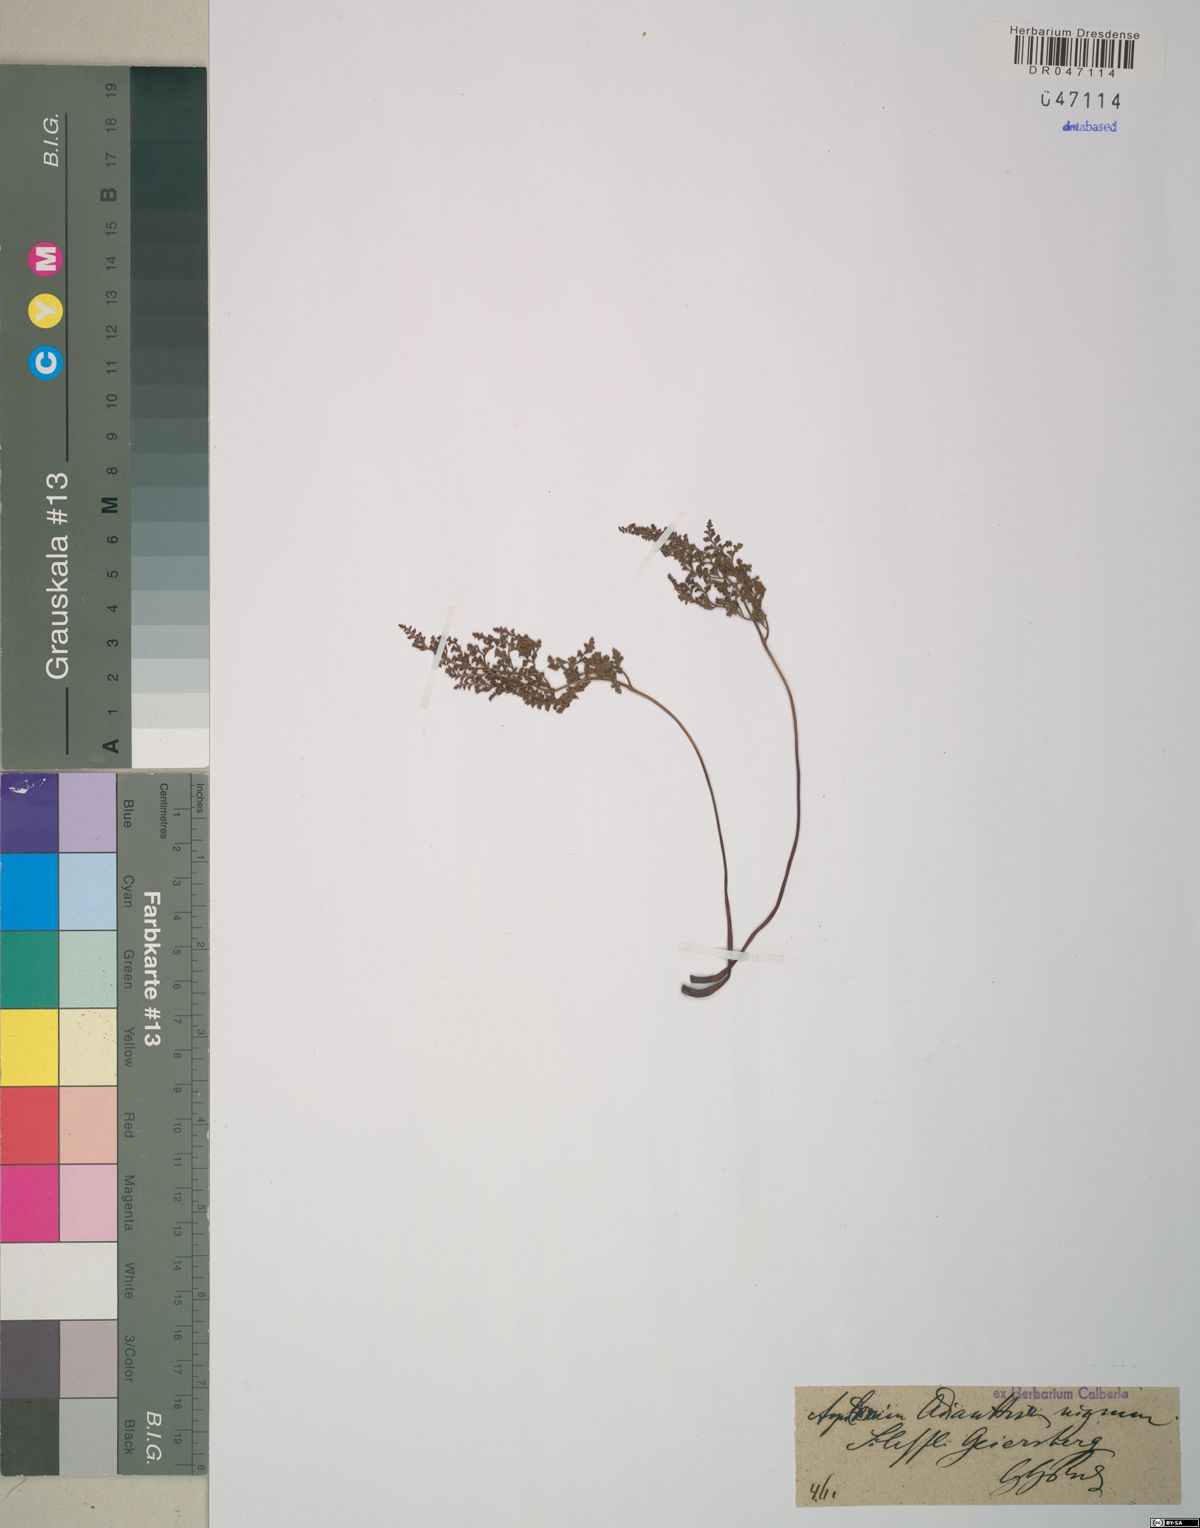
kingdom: Plantae
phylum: Tracheophyta
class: Polypodiopsida
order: Polypodiales
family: Aspleniaceae
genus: Asplenium
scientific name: Asplenium adiantum-nigrum
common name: Black spleenwort
